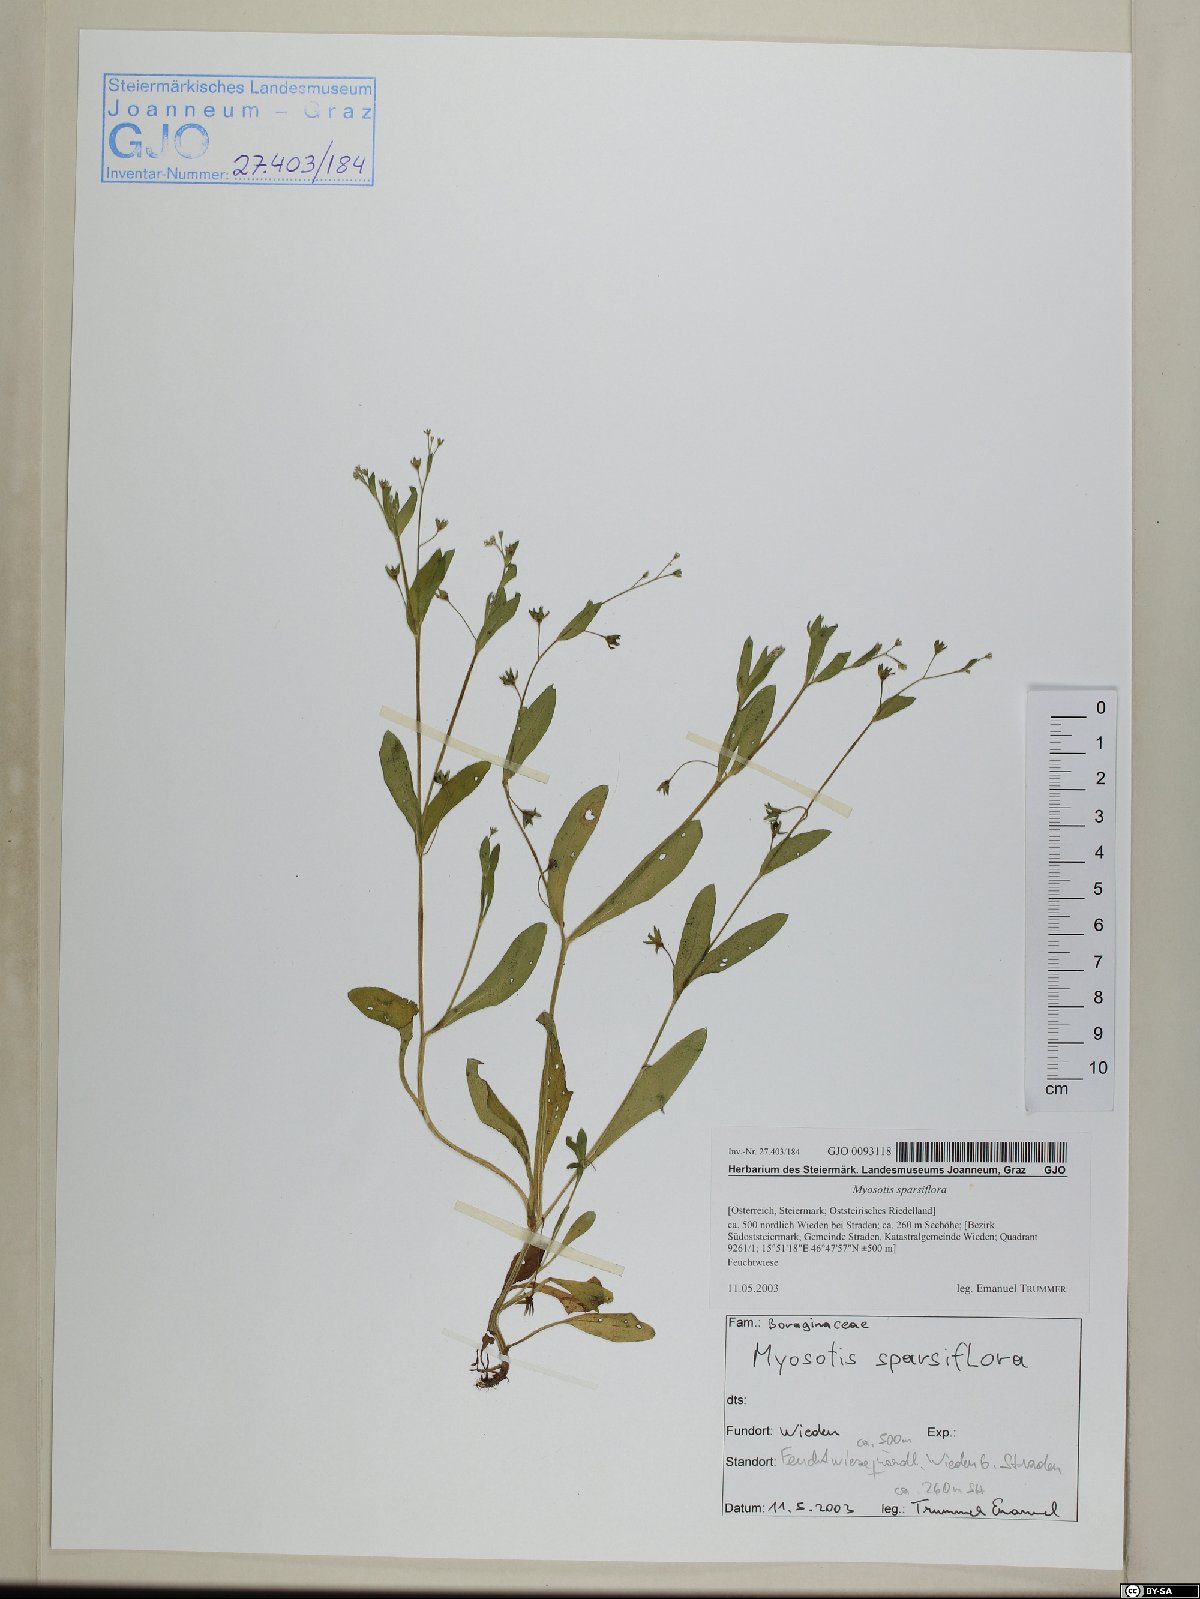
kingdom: Plantae
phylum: Tracheophyta
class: Magnoliopsida
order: Boraginales
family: Boraginaceae
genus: Myosotis
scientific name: Myosotis sparsiflora
